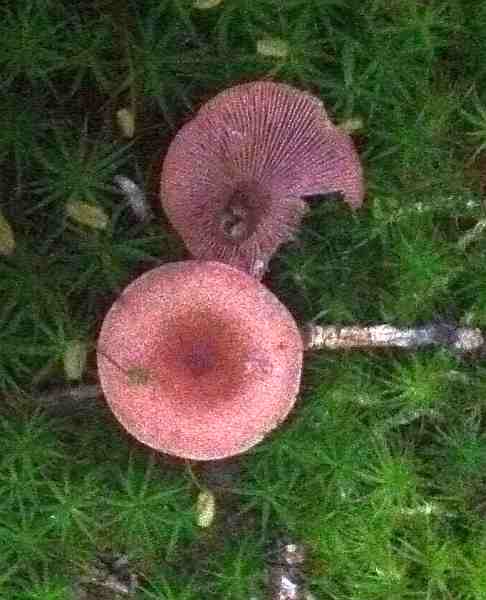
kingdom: Fungi
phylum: Basidiomycota
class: Agaricomycetes
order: Russulales
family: Russulaceae
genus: Lactarius
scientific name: Lactarius camphoratus
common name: kamfer-mælkehat
